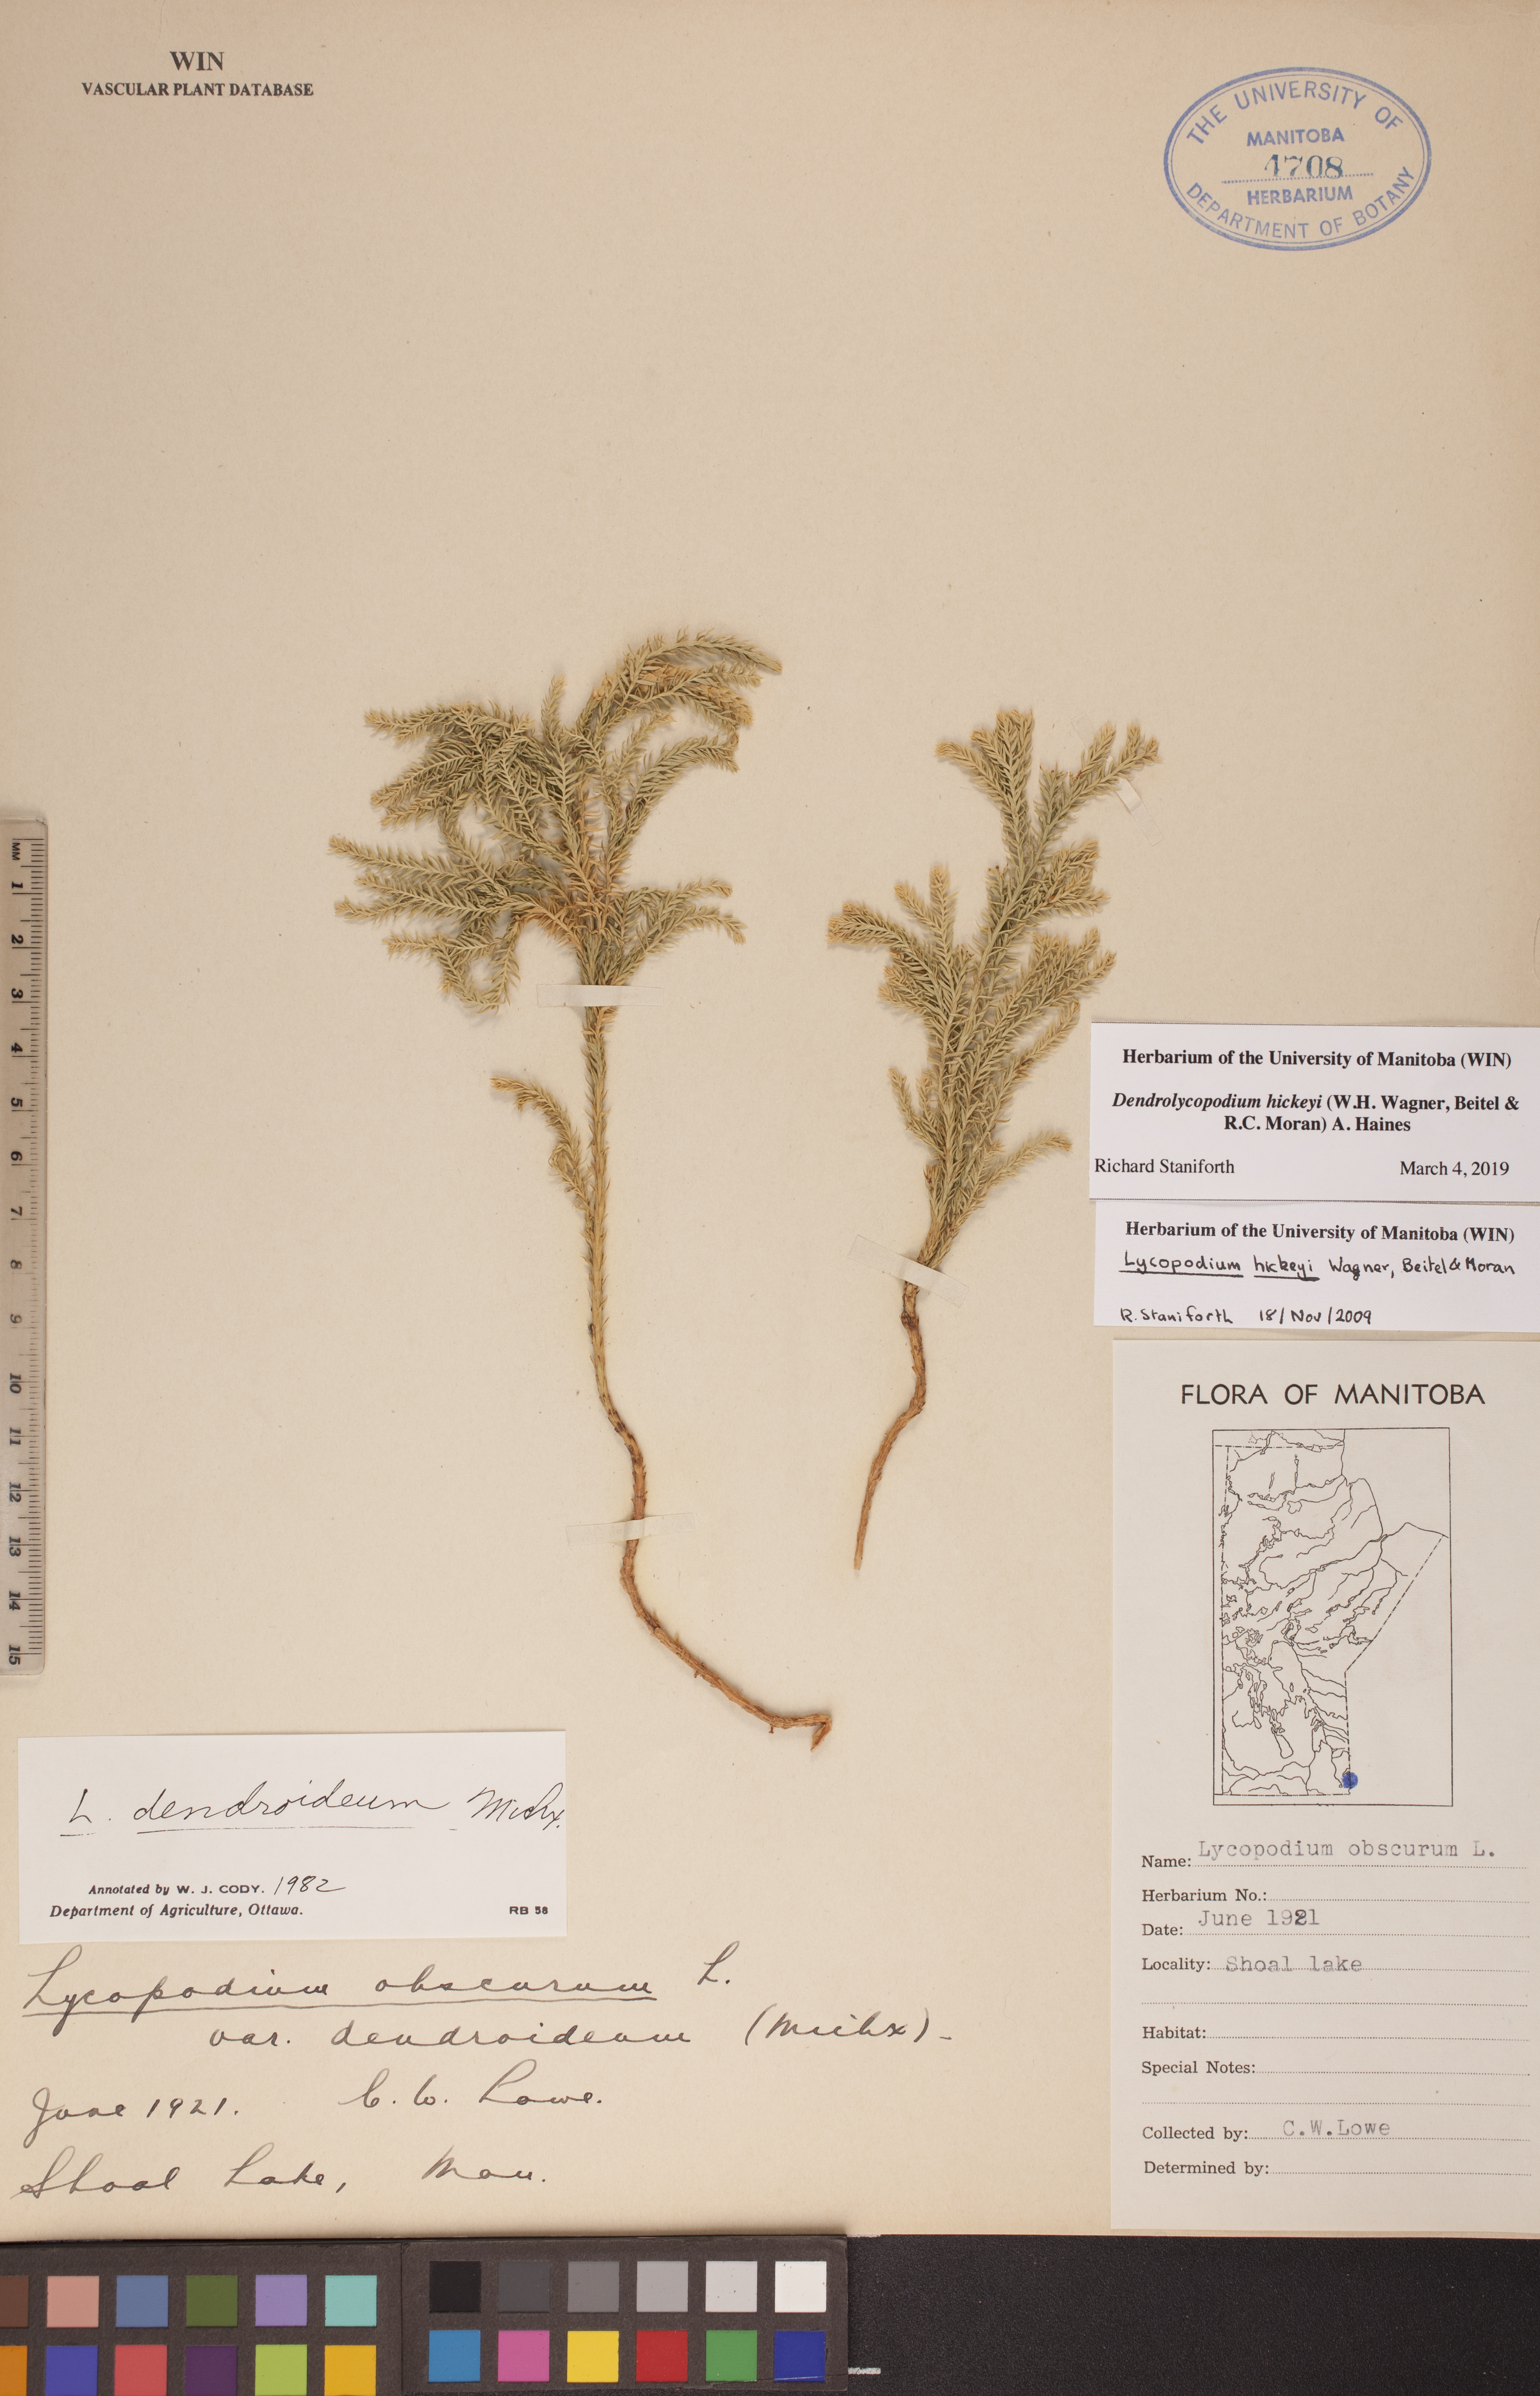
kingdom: Plantae
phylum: Tracheophyta
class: Lycopodiopsida
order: Lycopodiales
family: Lycopodiaceae
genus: Dendrolycopodium
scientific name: Dendrolycopodium hickeyi
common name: Hickey's clubmoss
